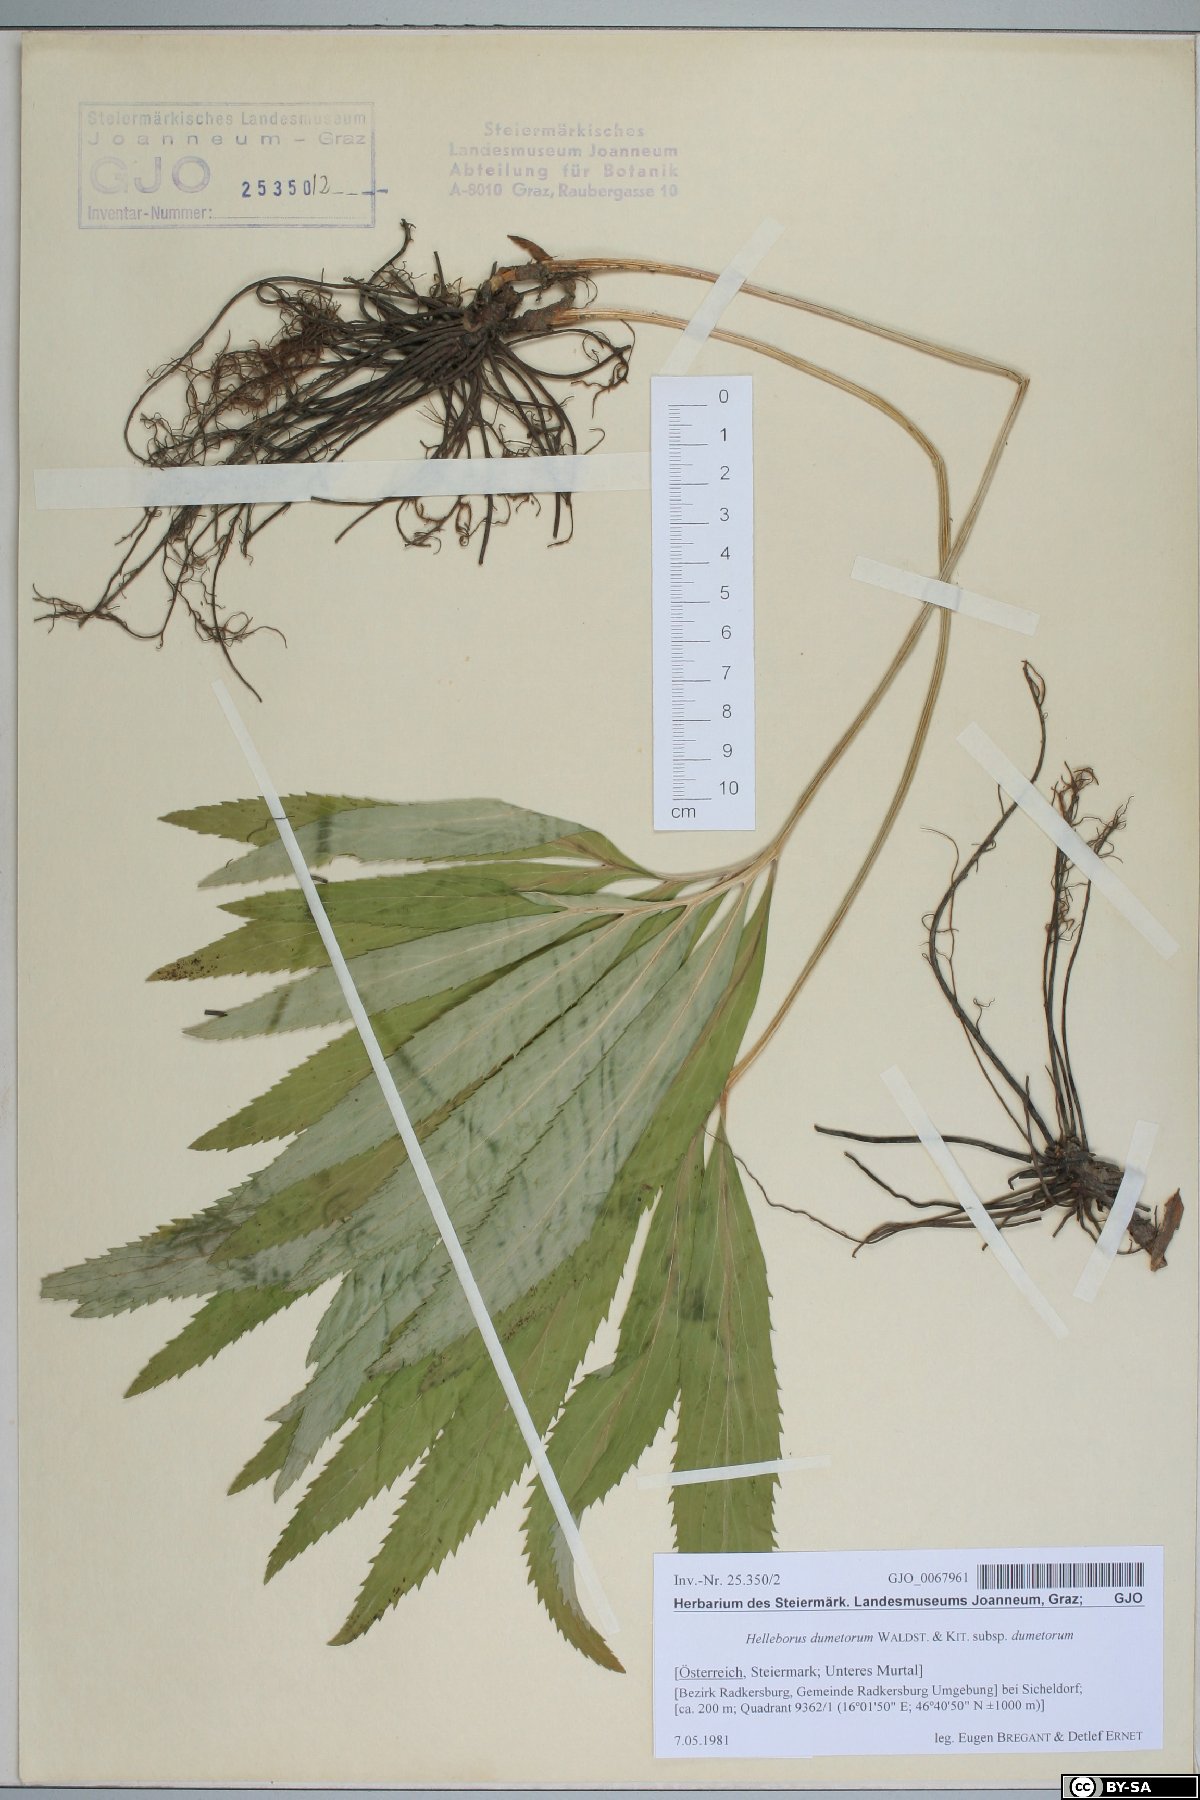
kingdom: Plantae
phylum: Tracheophyta
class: Magnoliopsida
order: Ranunculales
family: Ranunculaceae
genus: Helleborus
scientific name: Helleborus dumetorum
